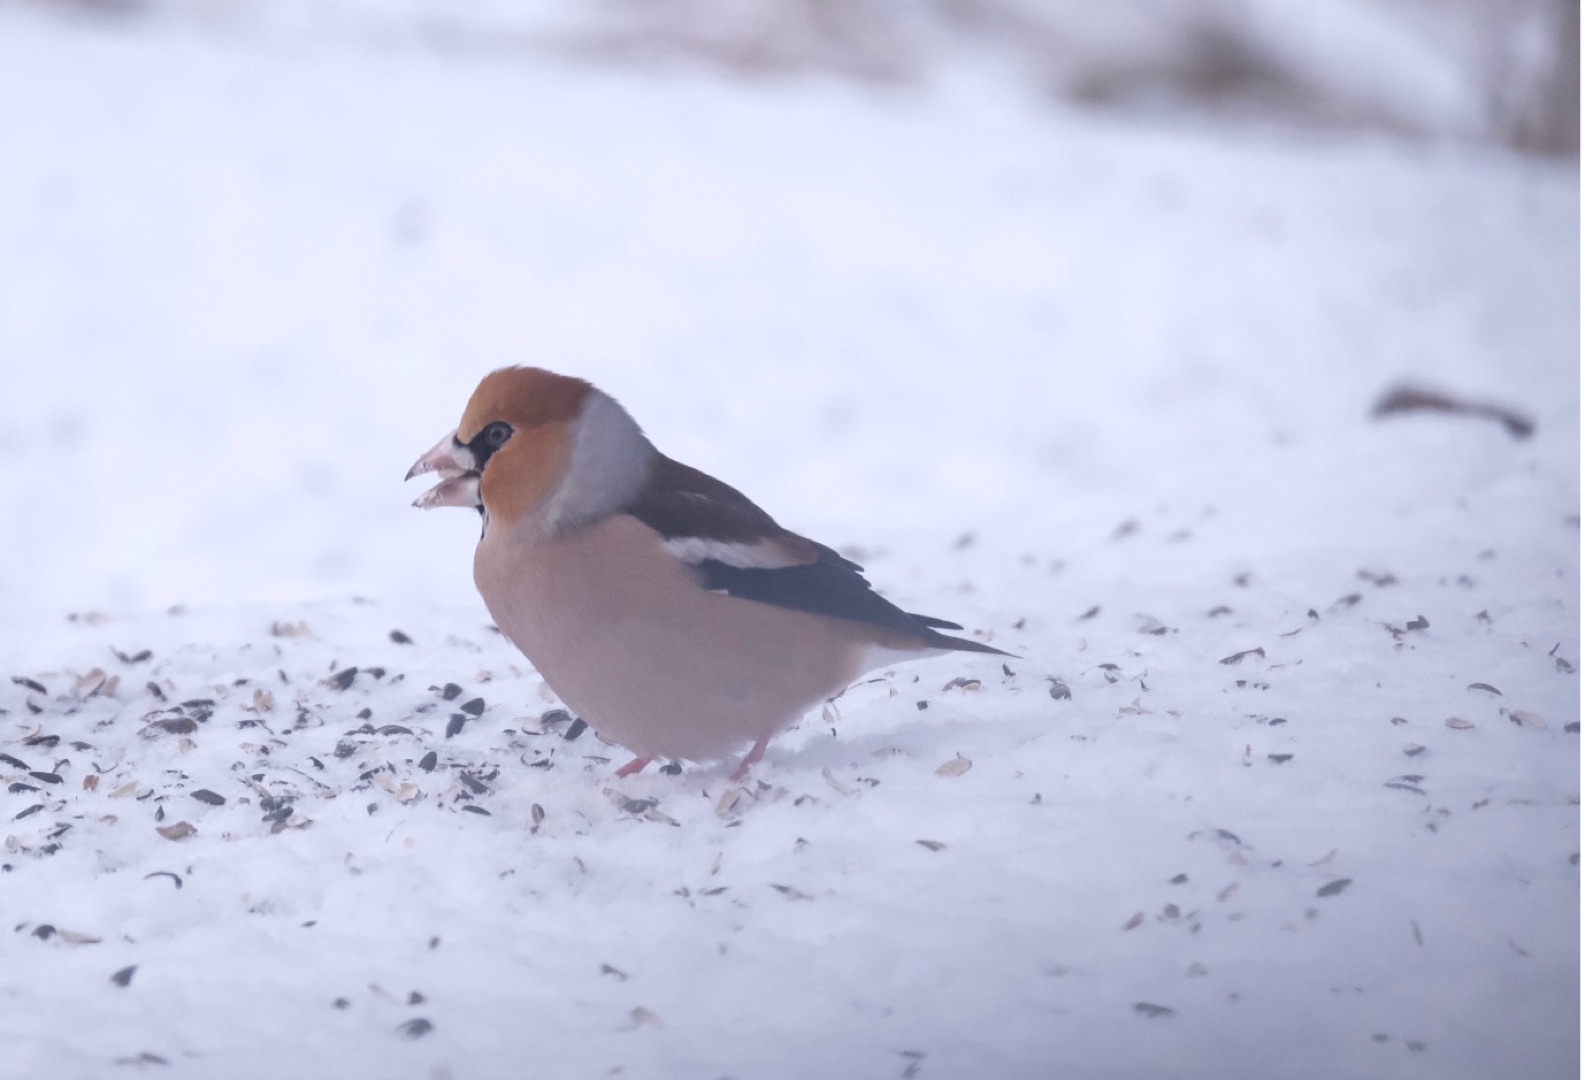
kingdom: Animalia
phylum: Chordata
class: Aves
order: Passeriformes
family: Fringillidae
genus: Coccothraustes
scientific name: Coccothraustes coccothraustes
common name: Kernebider
